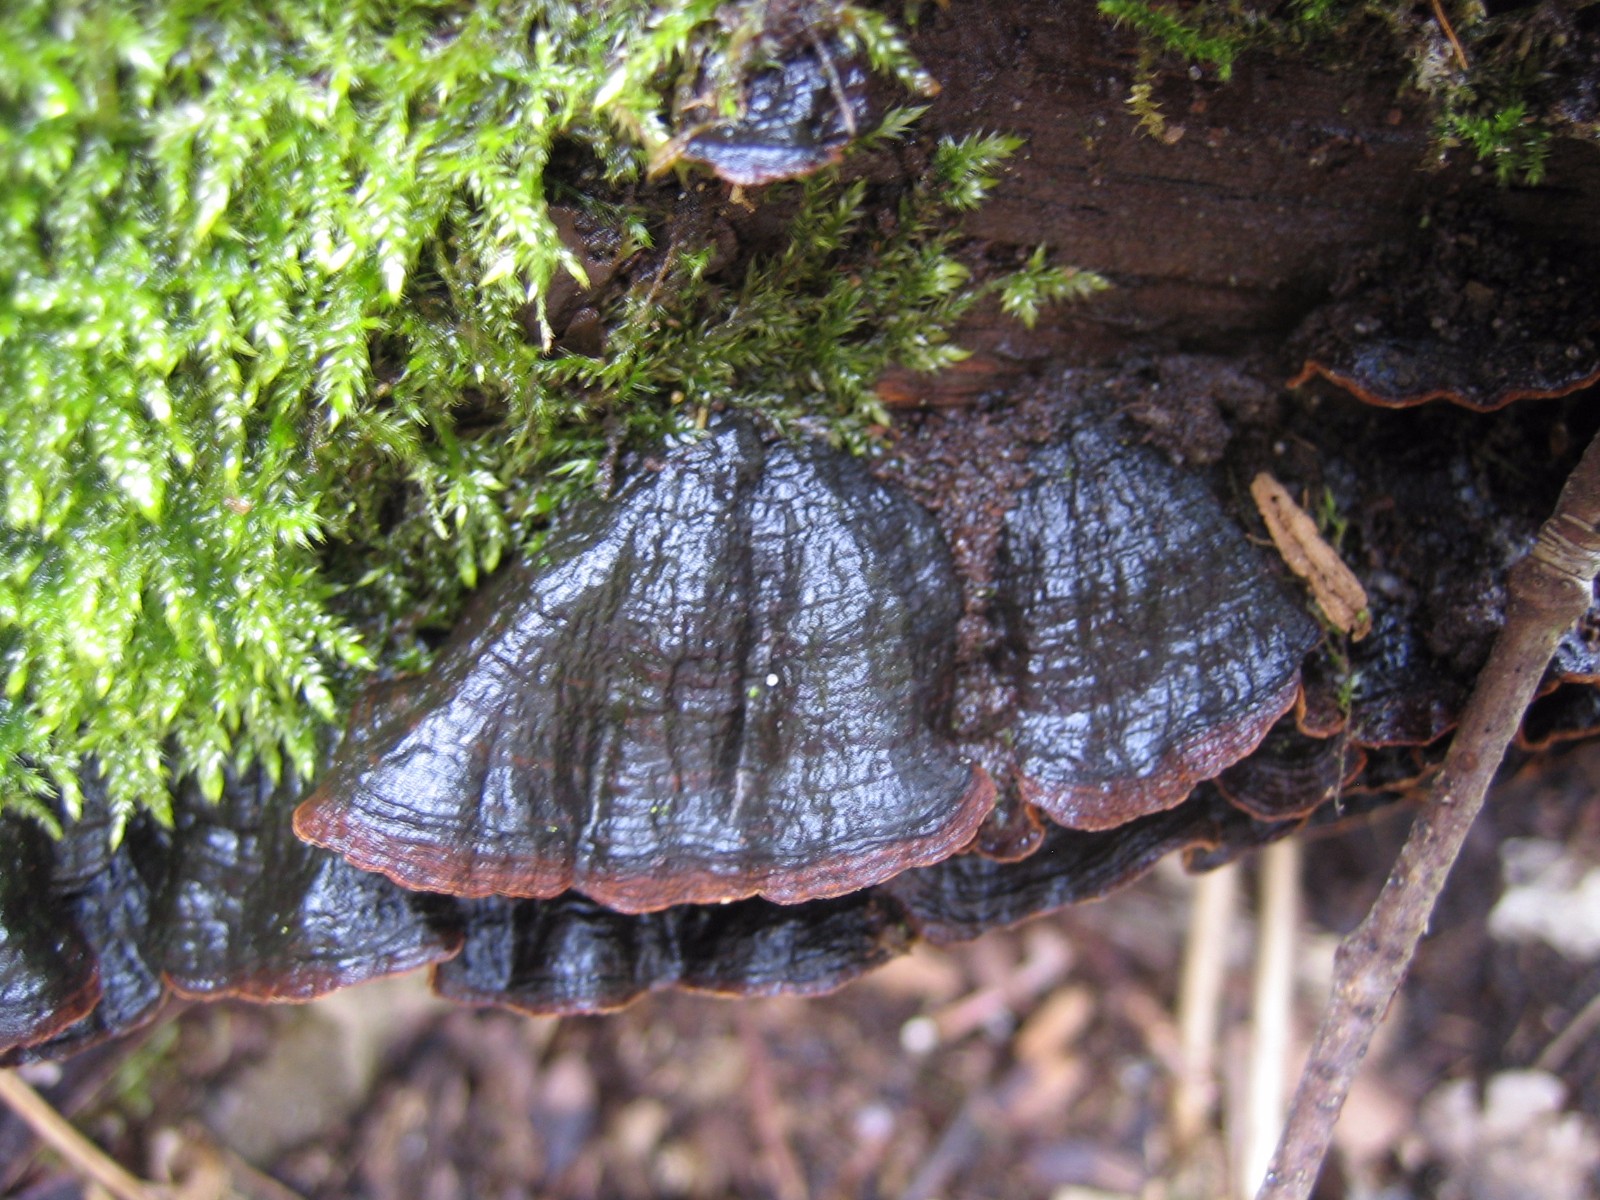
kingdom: Fungi
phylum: Basidiomycota
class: Agaricomycetes
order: Hymenochaetales
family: Hymenochaetaceae
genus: Hymenochaete
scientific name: Hymenochaete rubiginosa
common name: stiv ruslædersvamp
